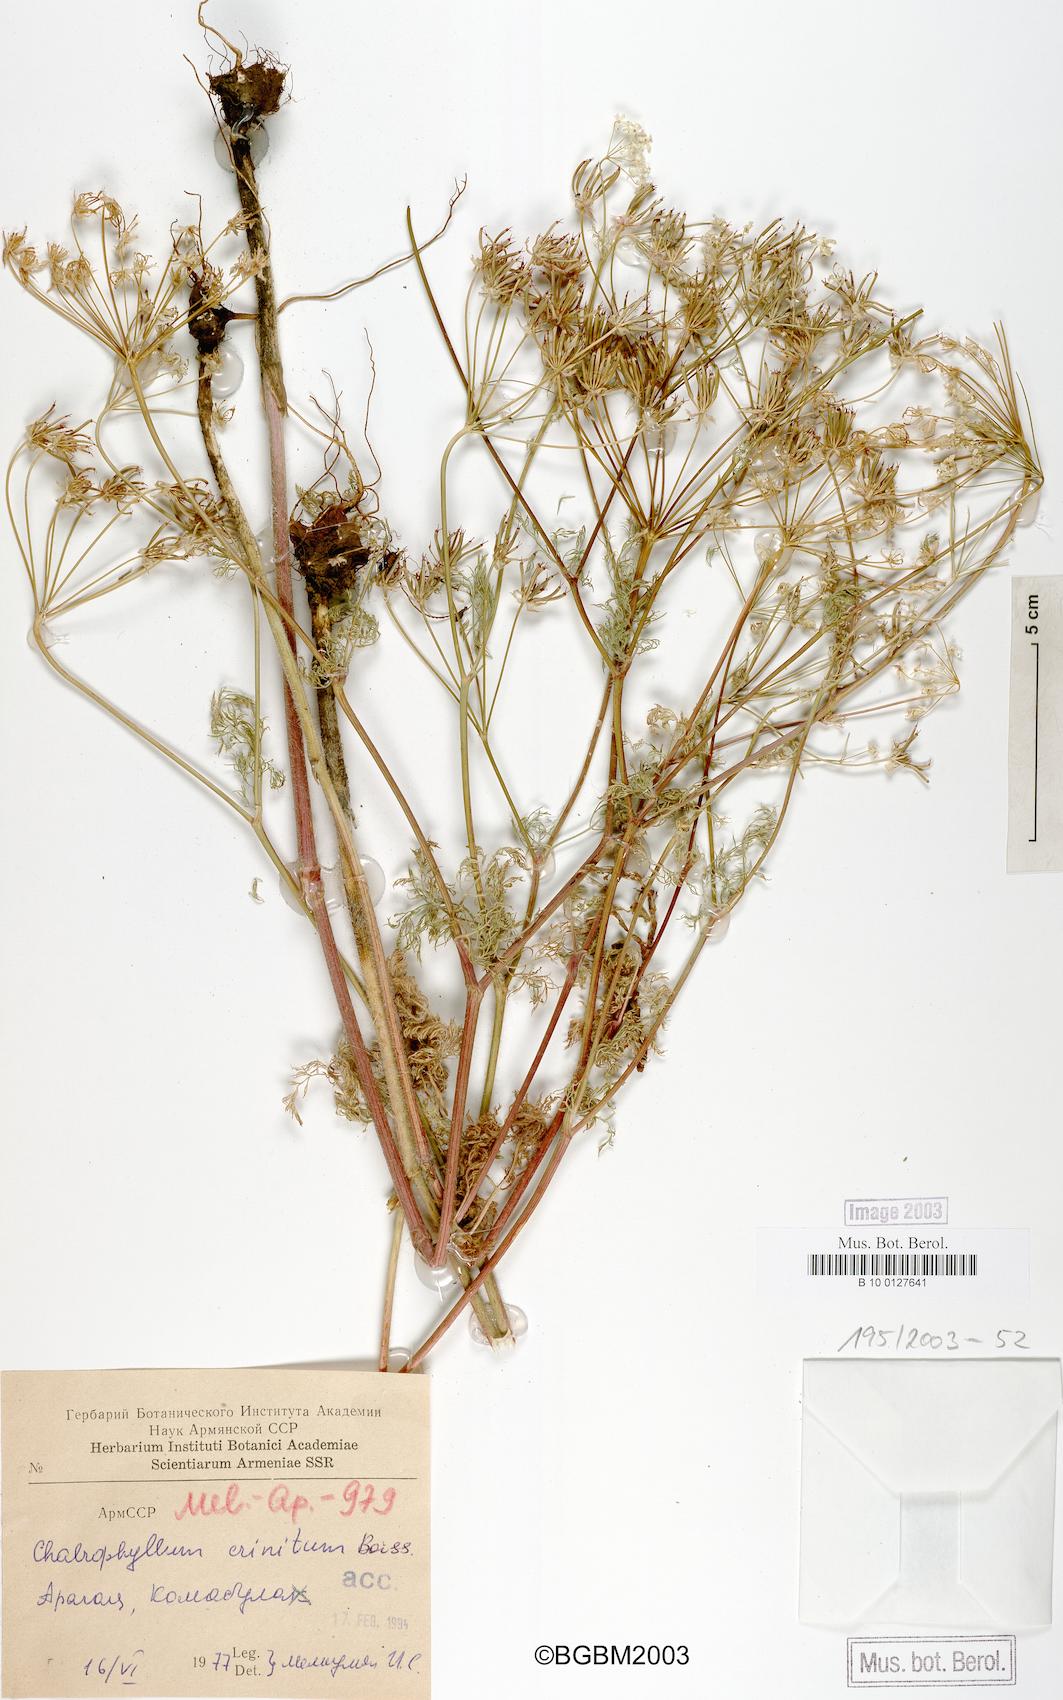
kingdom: Plantae
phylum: Tracheophyta
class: Magnoliopsida
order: Apiales
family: Apiaceae
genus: Chaerophyllum
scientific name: Chaerophyllum crinitum
